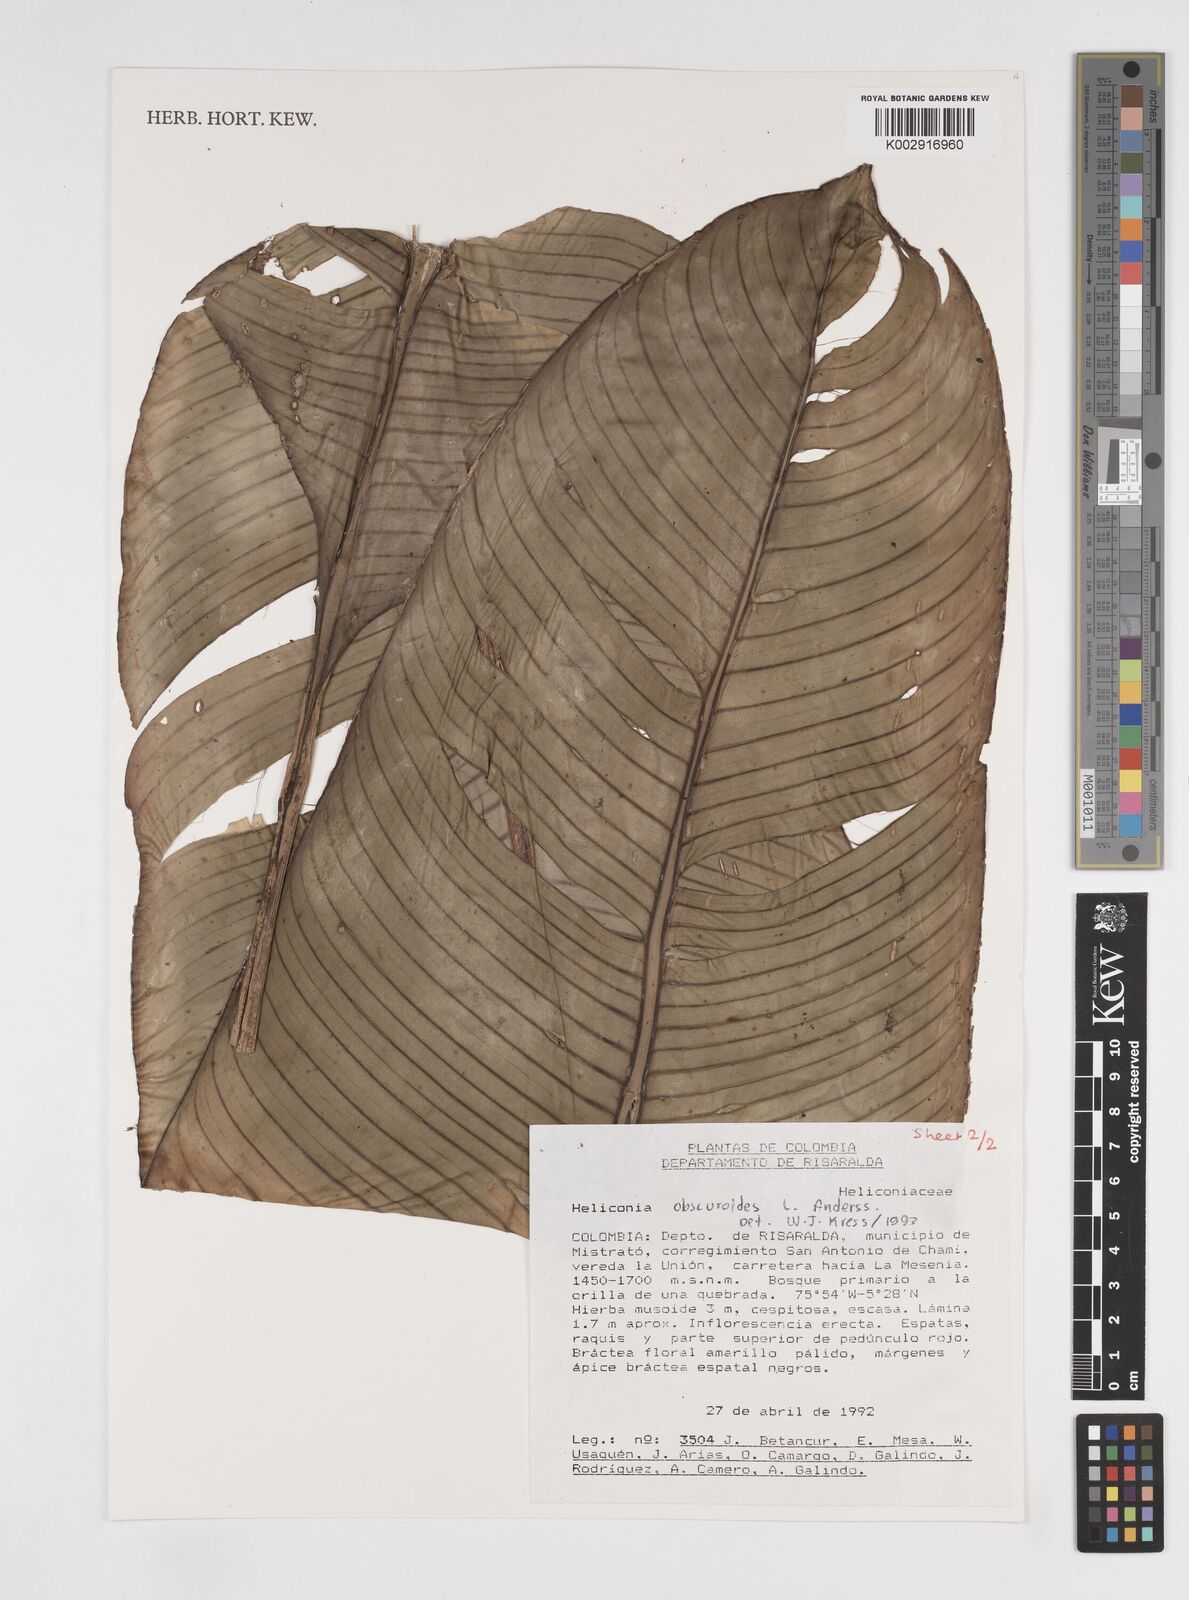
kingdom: Plantae
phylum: Tracheophyta
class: Liliopsida
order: Zingiberales
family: Heliconiaceae
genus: Heliconia
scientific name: Heliconia obscuroides
